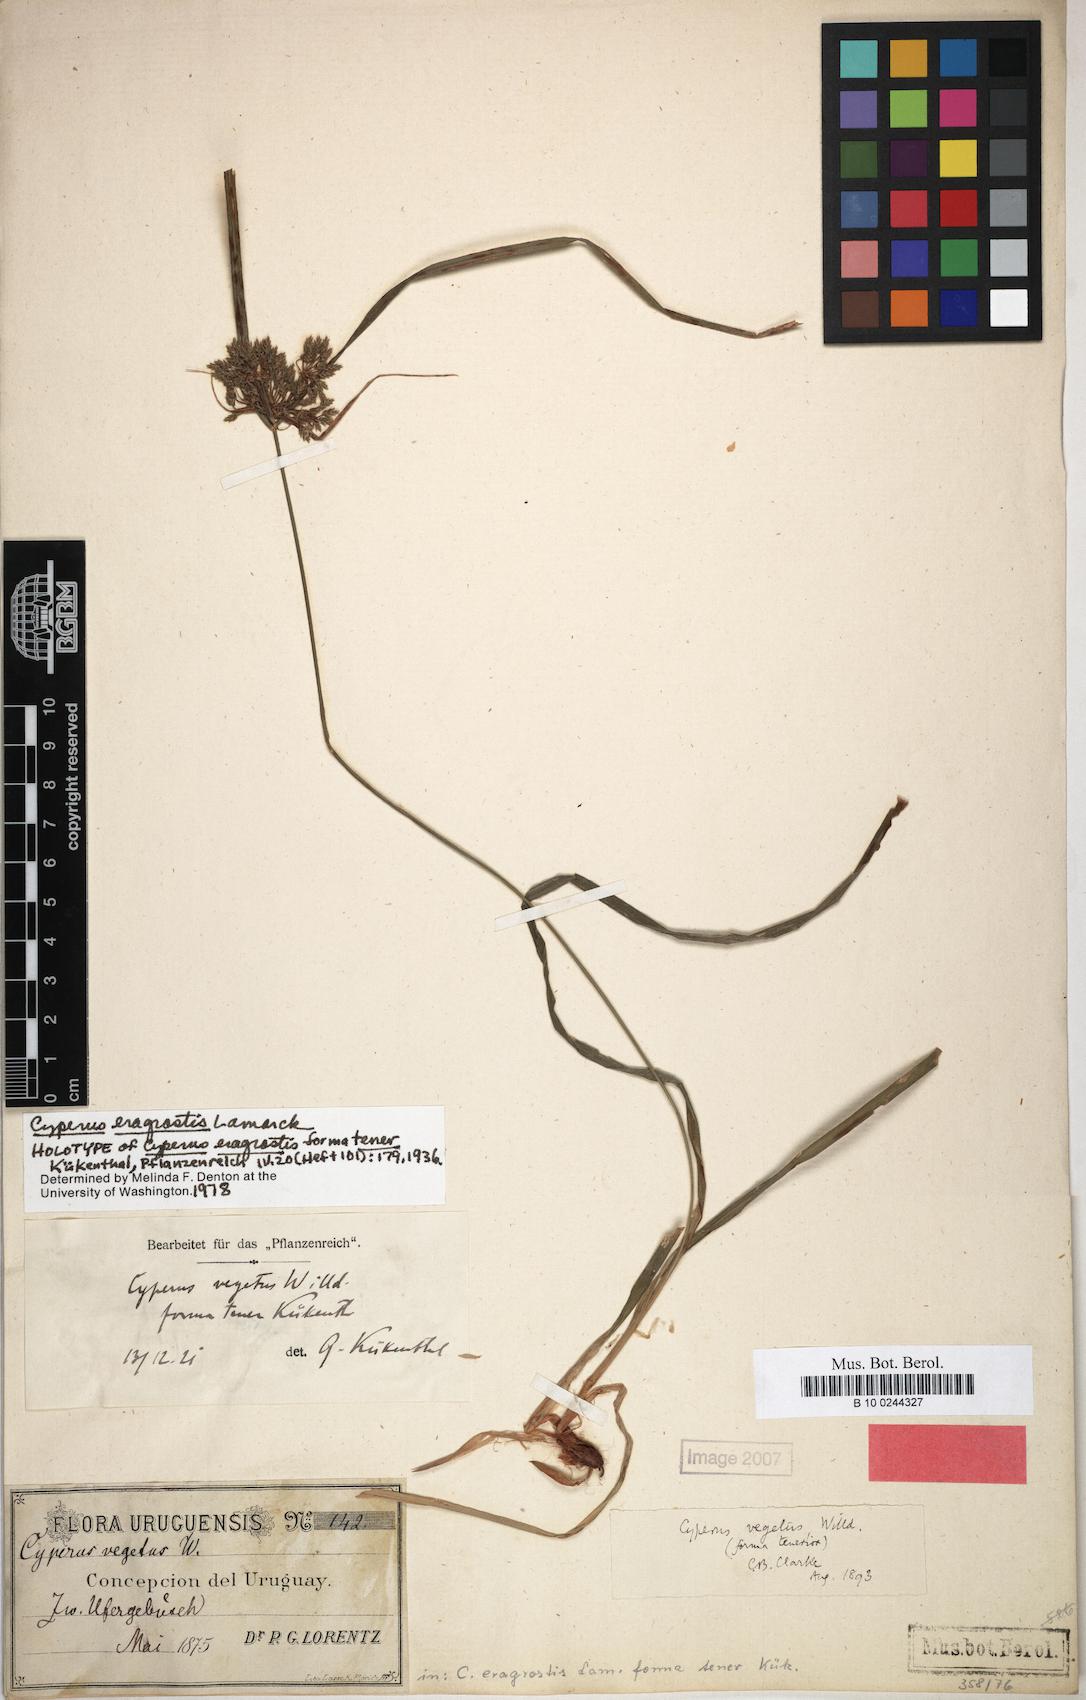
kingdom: Plantae
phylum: Tracheophyta
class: Liliopsida
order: Poales
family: Cyperaceae
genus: Cyperus
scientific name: Cyperus eragrostis
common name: Tall flatsedge
